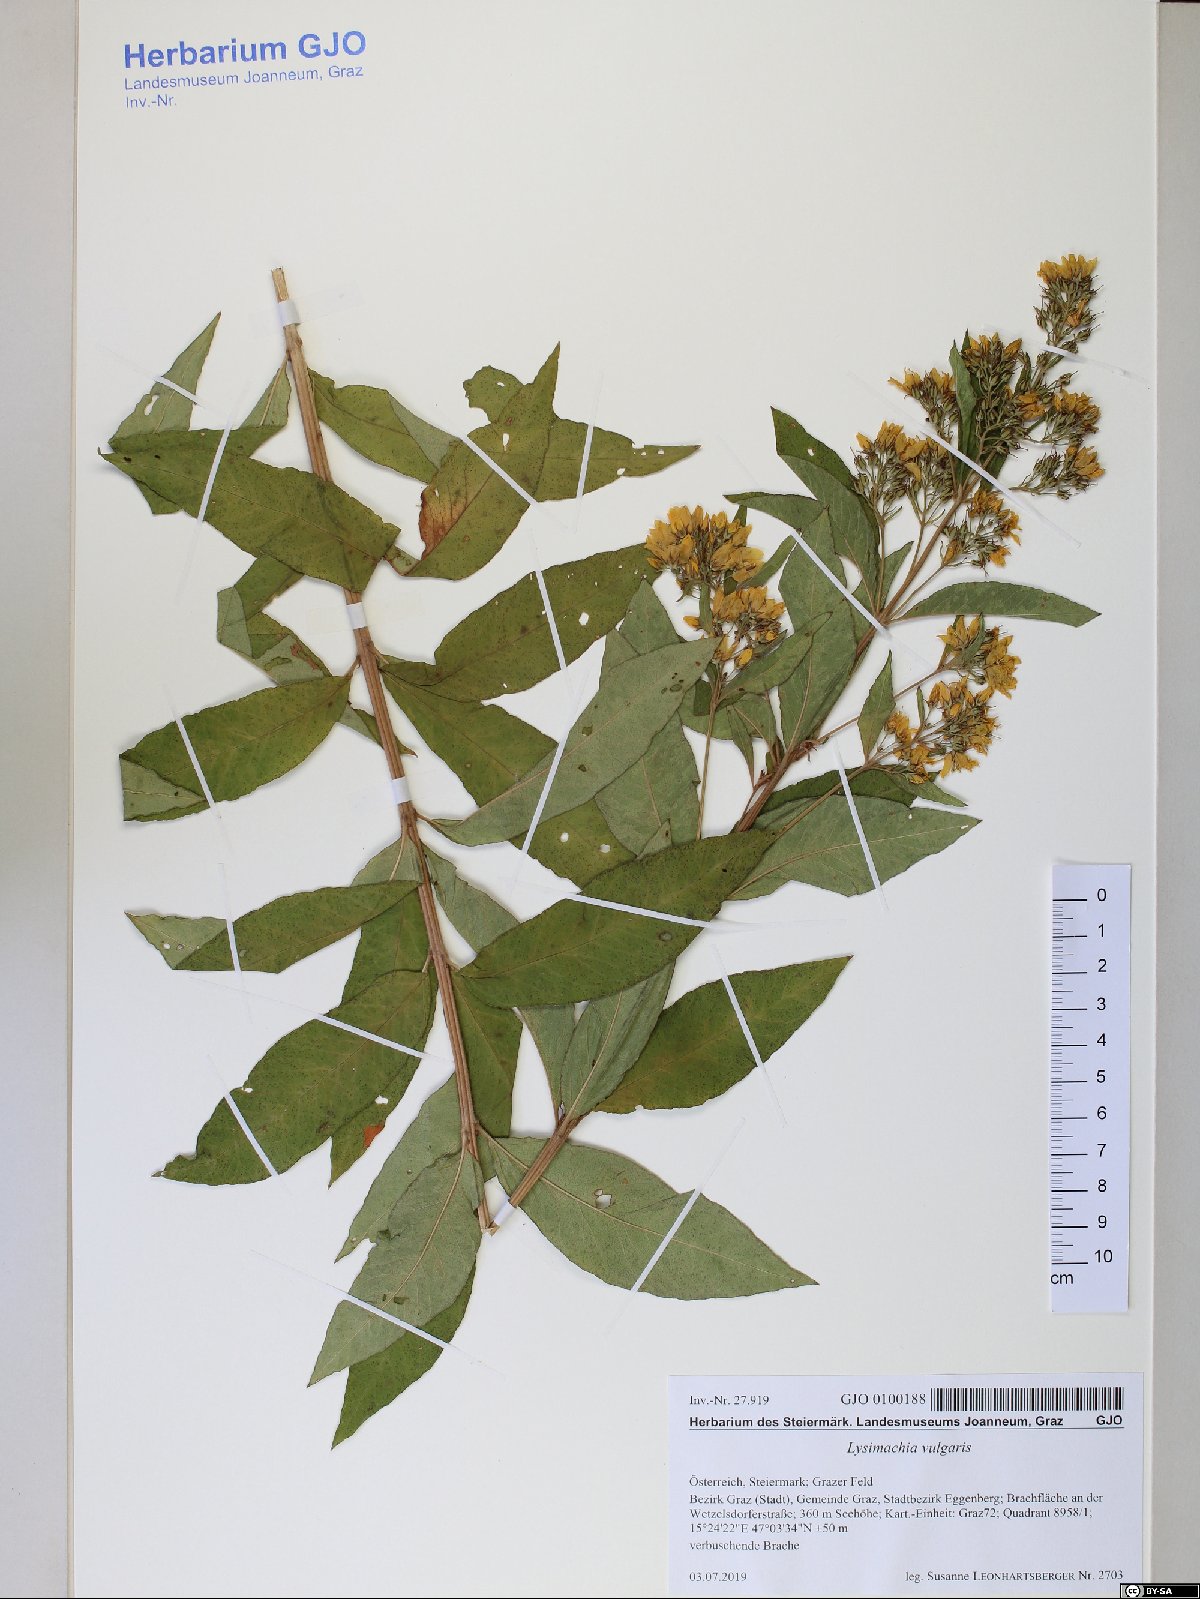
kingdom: Plantae
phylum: Tracheophyta
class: Magnoliopsida
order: Ericales
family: Primulaceae
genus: Lysimachia
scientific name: Lysimachia vulgaris
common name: Yellow loosestrife
